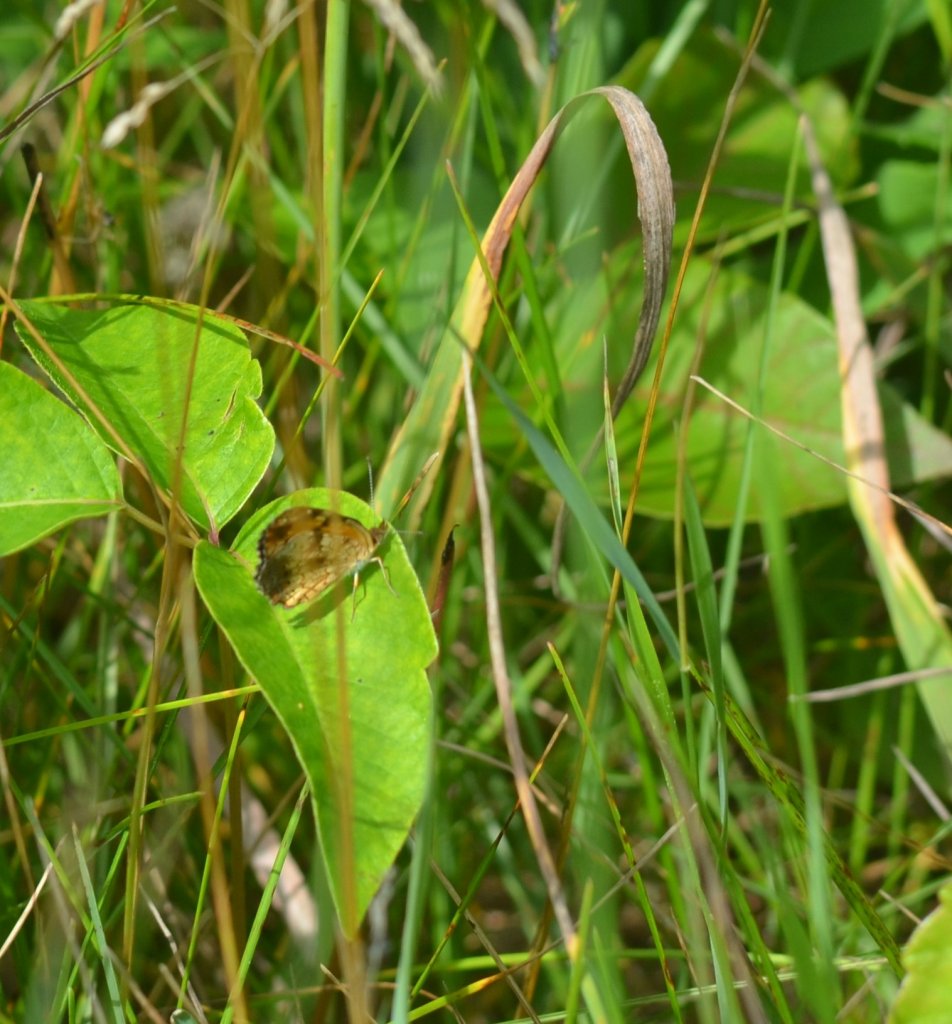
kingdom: Animalia
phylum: Arthropoda
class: Insecta
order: Lepidoptera
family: Nymphalidae
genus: Phyciodes
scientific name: Phyciodes tharos
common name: Northern Crescent
